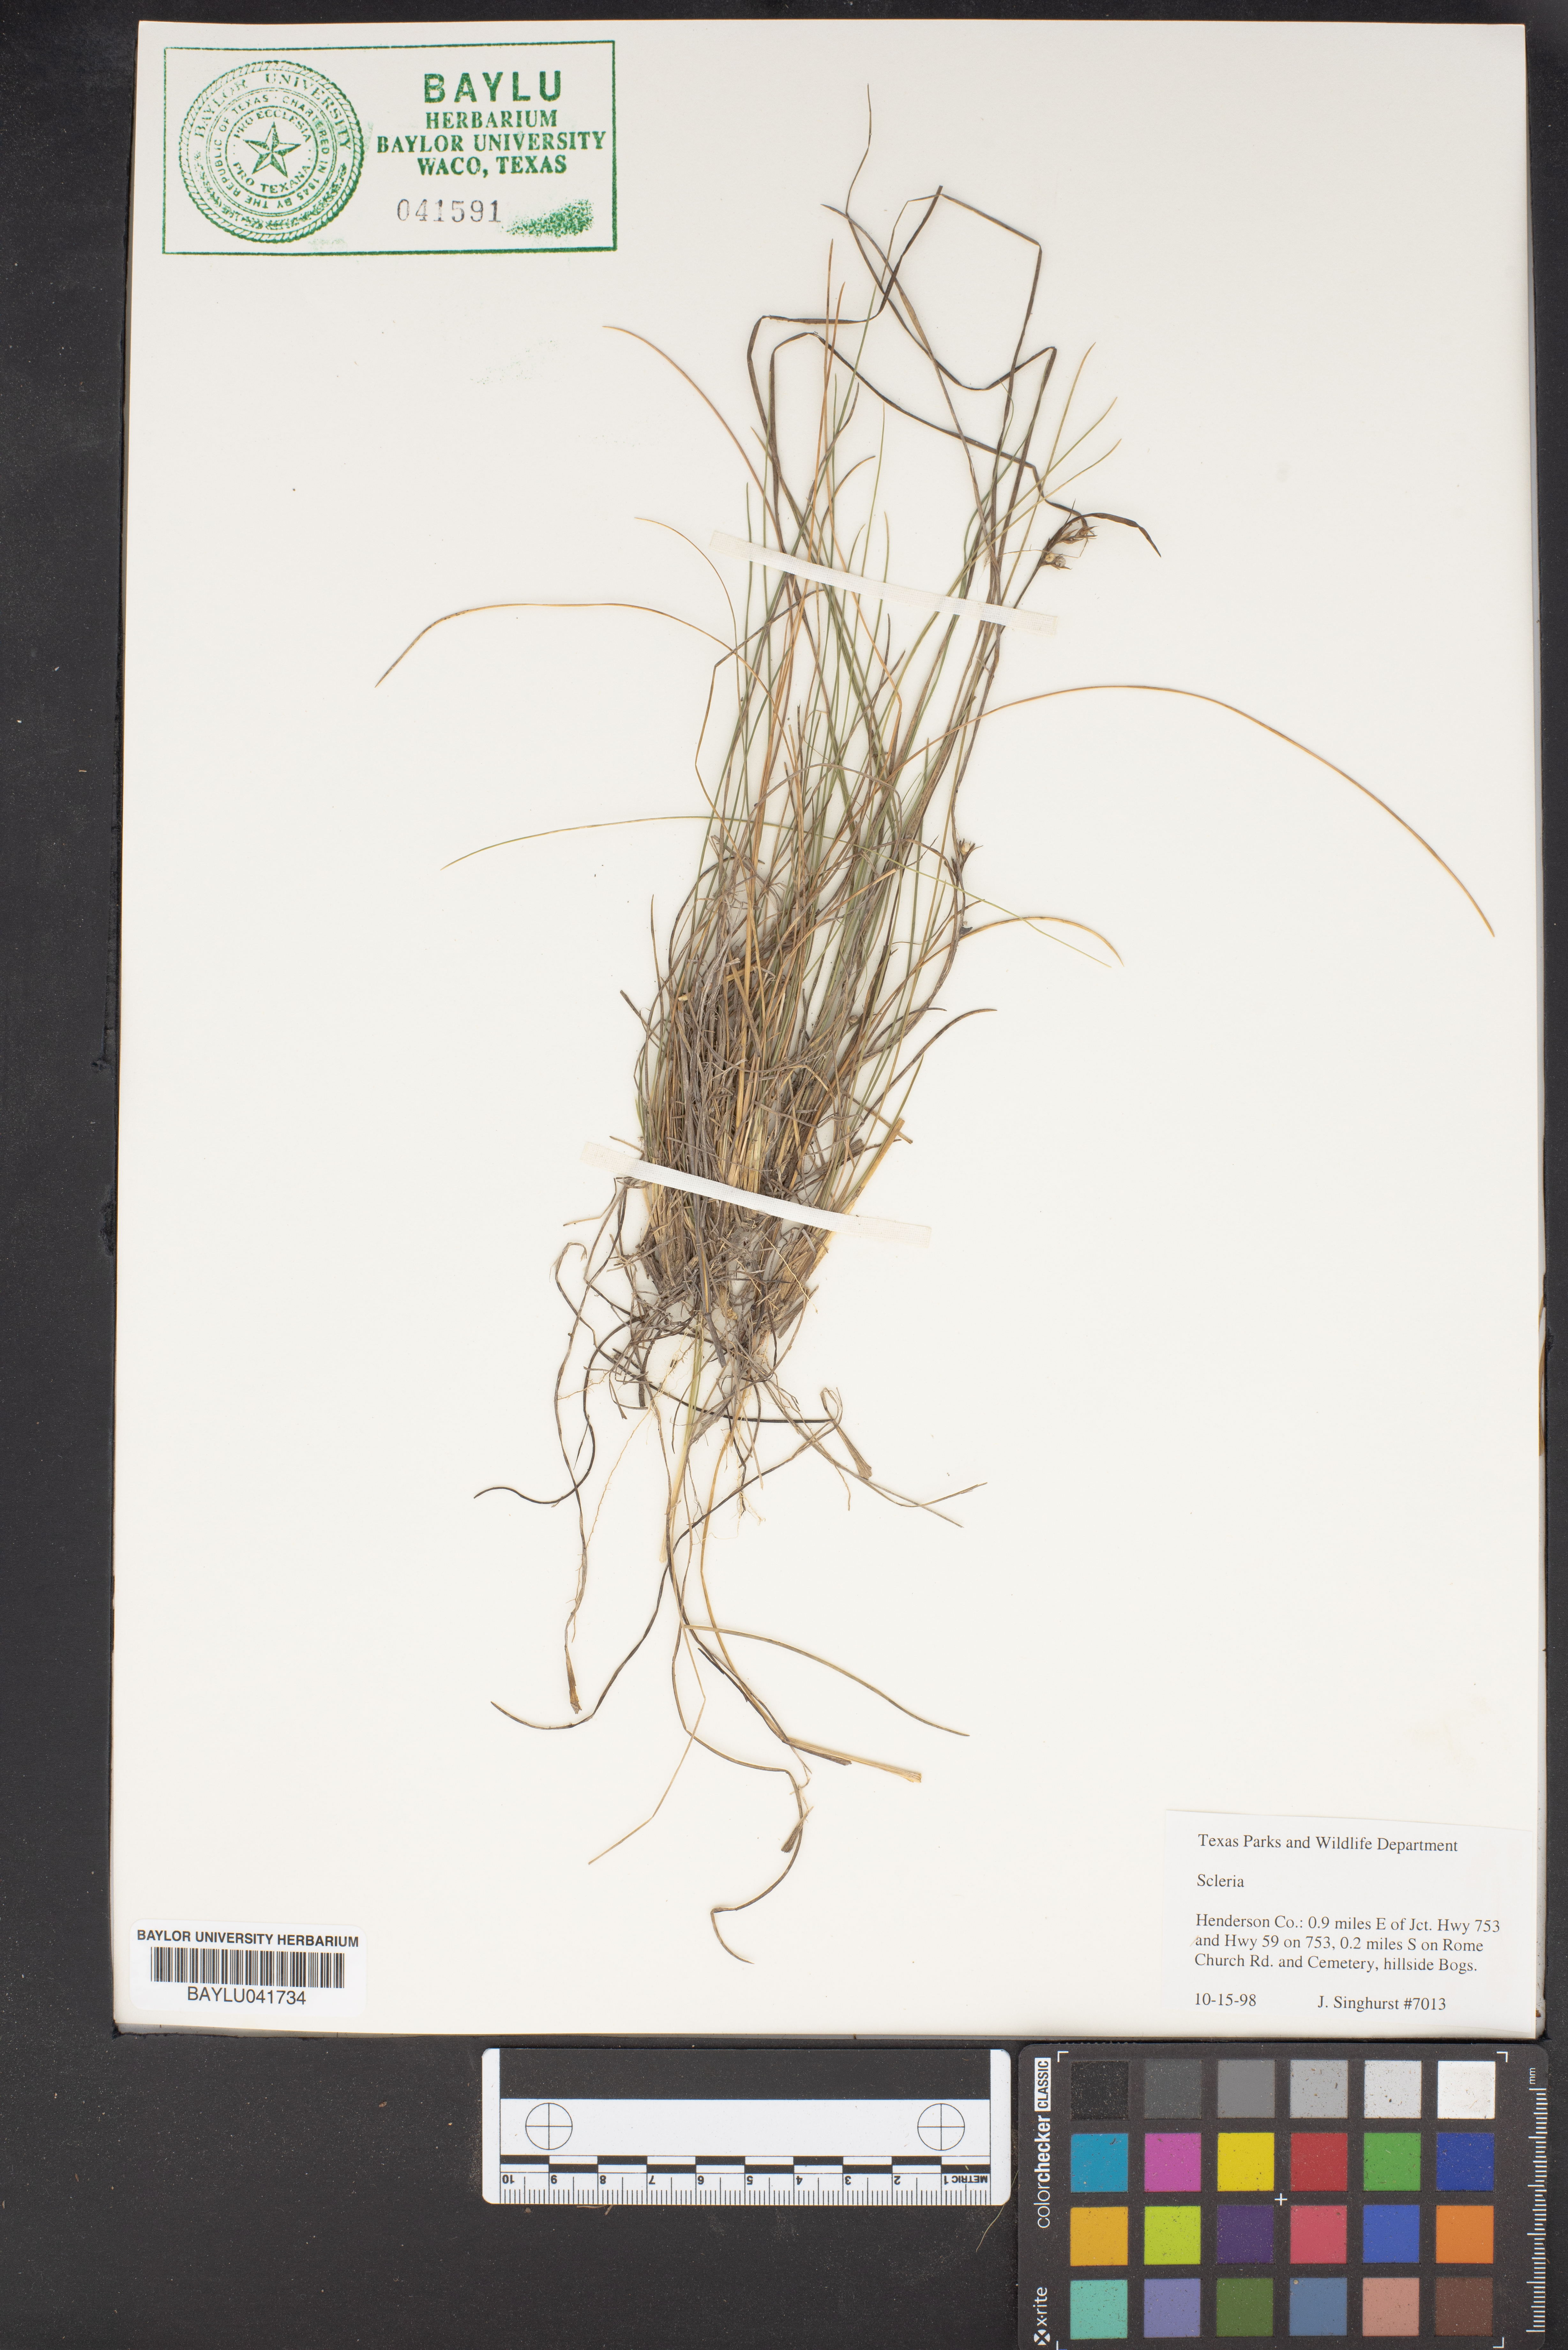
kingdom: Plantae
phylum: Tracheophyta
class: Liliopsida
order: Poales
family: Cyperaceae
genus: Scleria
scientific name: Scleria
